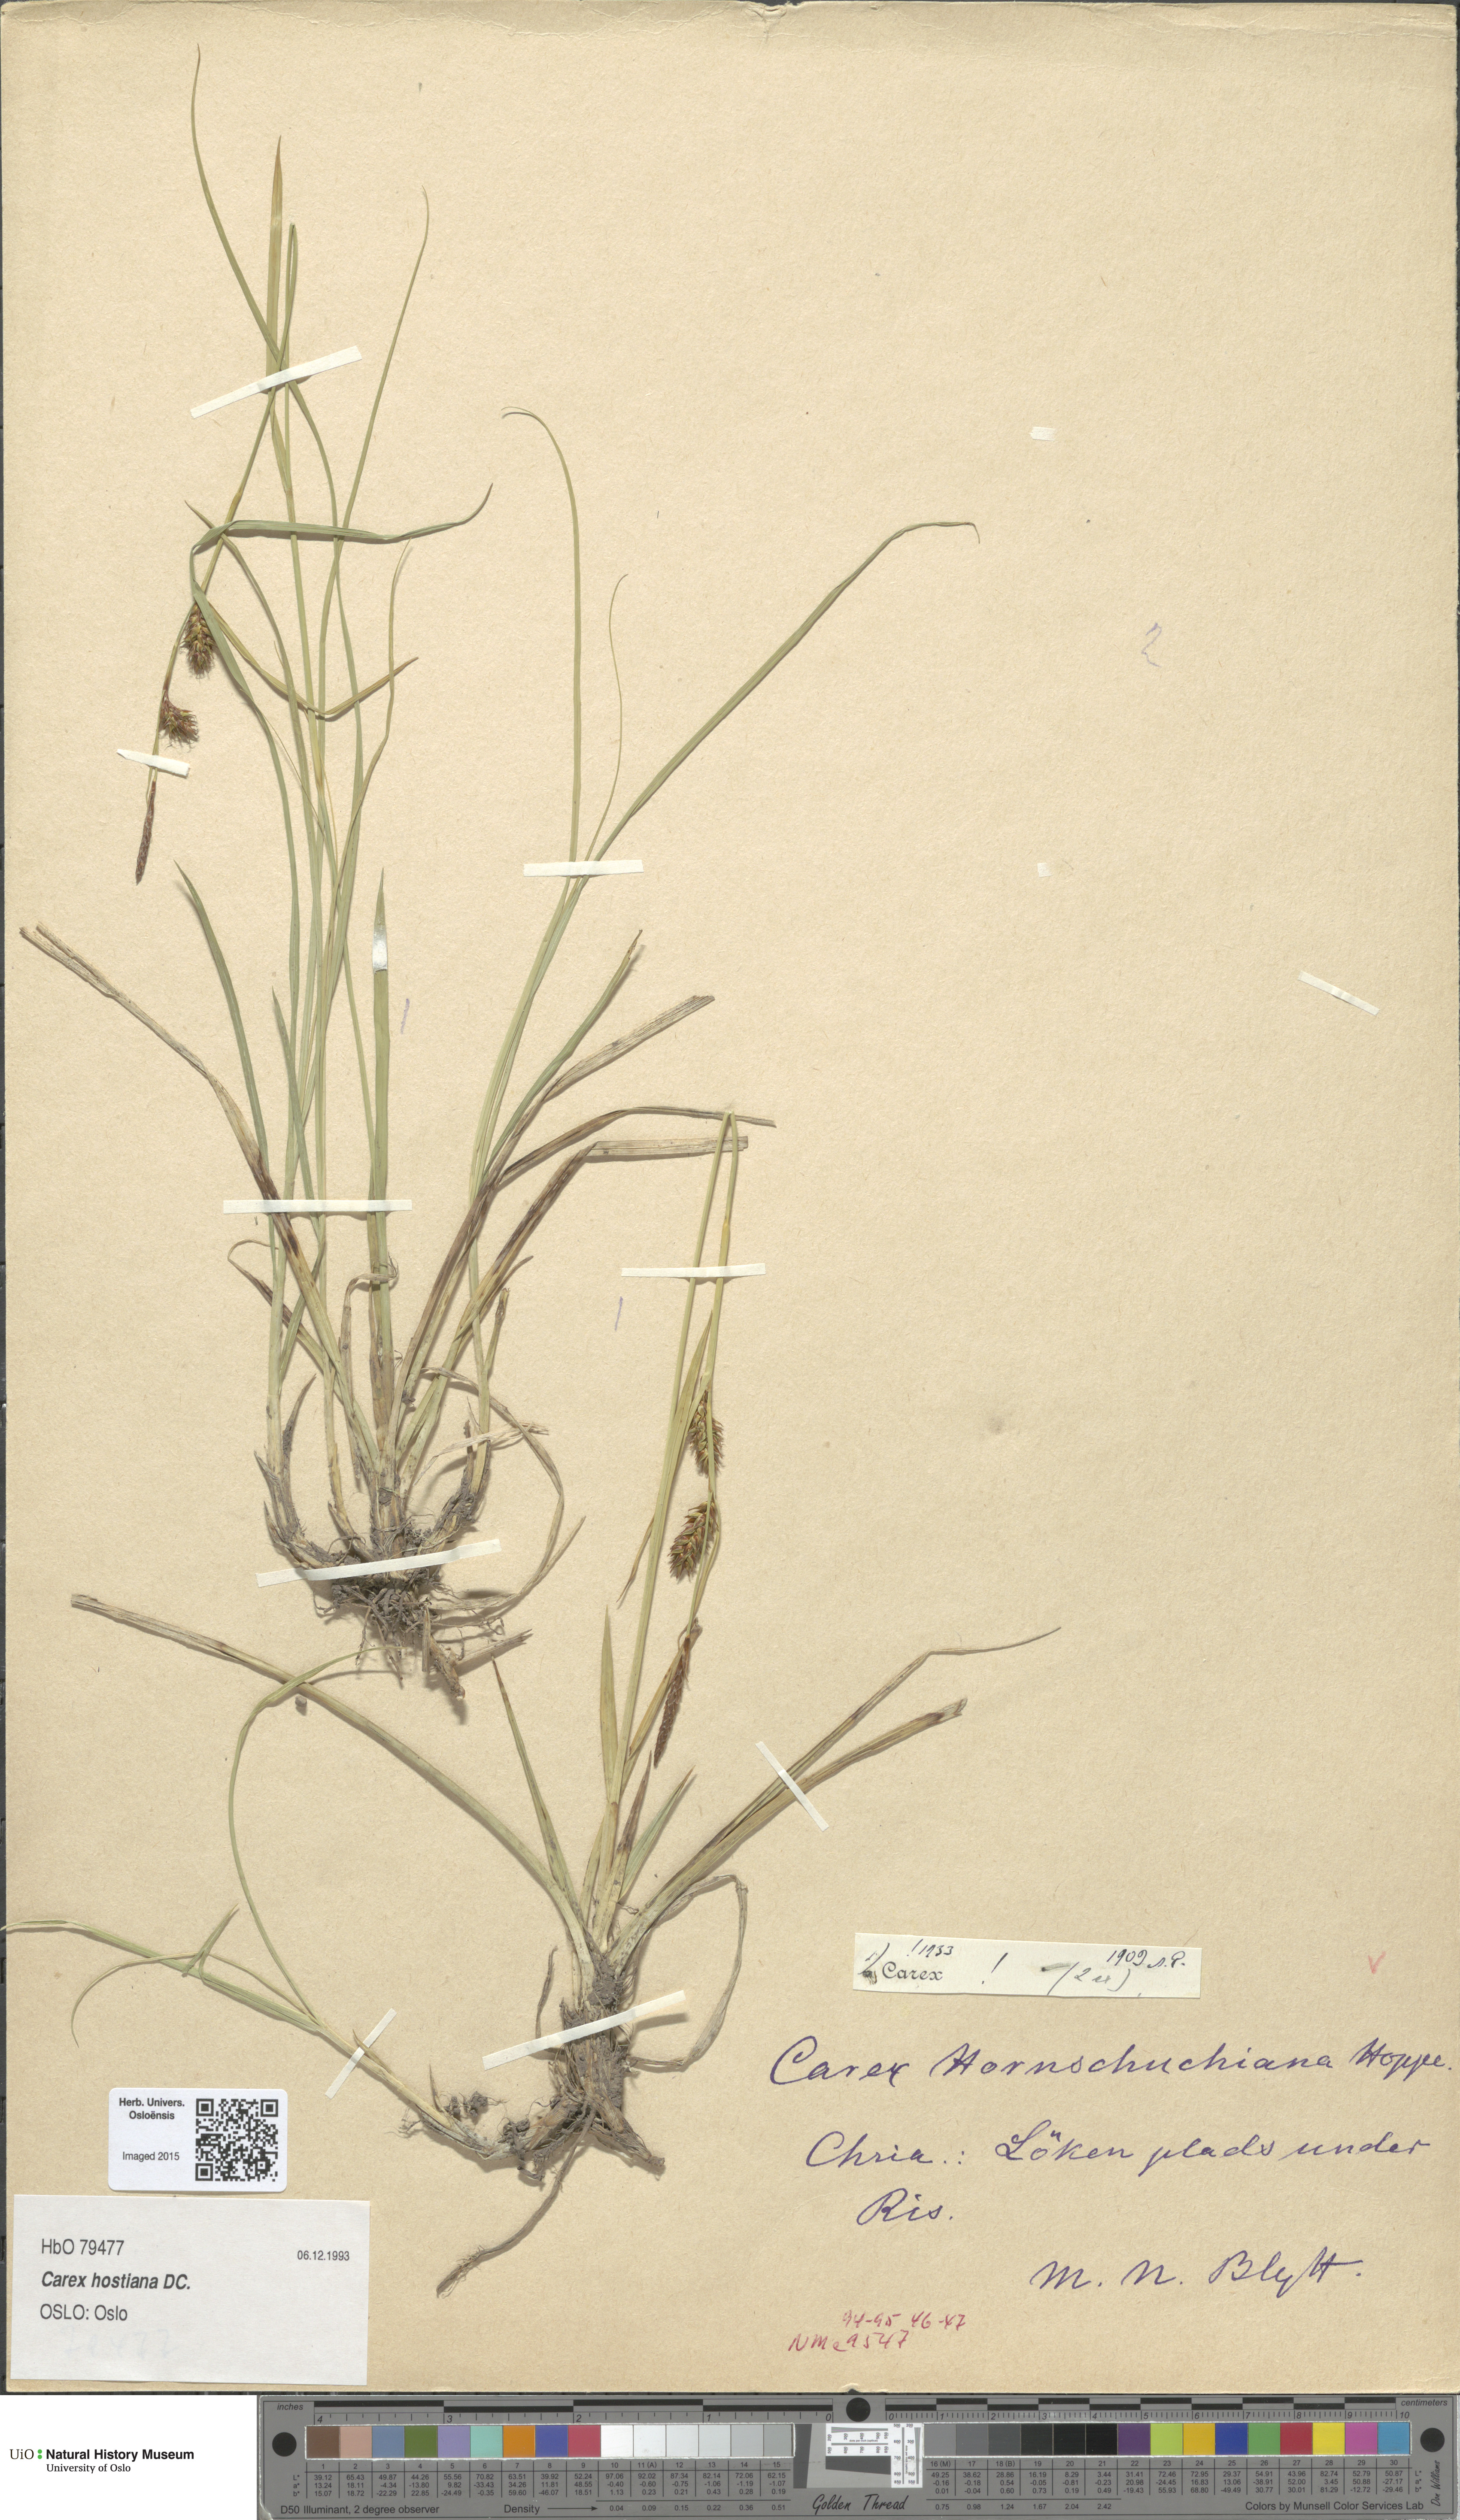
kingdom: Plantae
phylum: Tracheophyta
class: Liliopsida
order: Poales
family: Cyperaceae
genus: Carex
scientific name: Carex hostiana
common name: Tawny sedge
